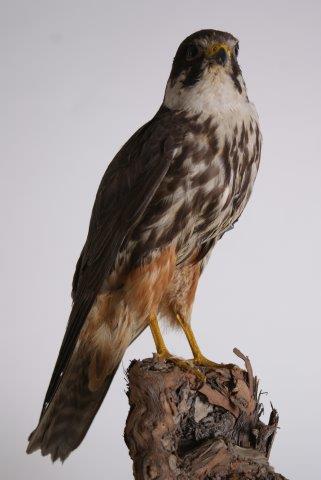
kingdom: Animalia
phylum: Chordata
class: Aves
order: Falconiformes
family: Falconidae
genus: Falco
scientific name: Falco subbuteo
